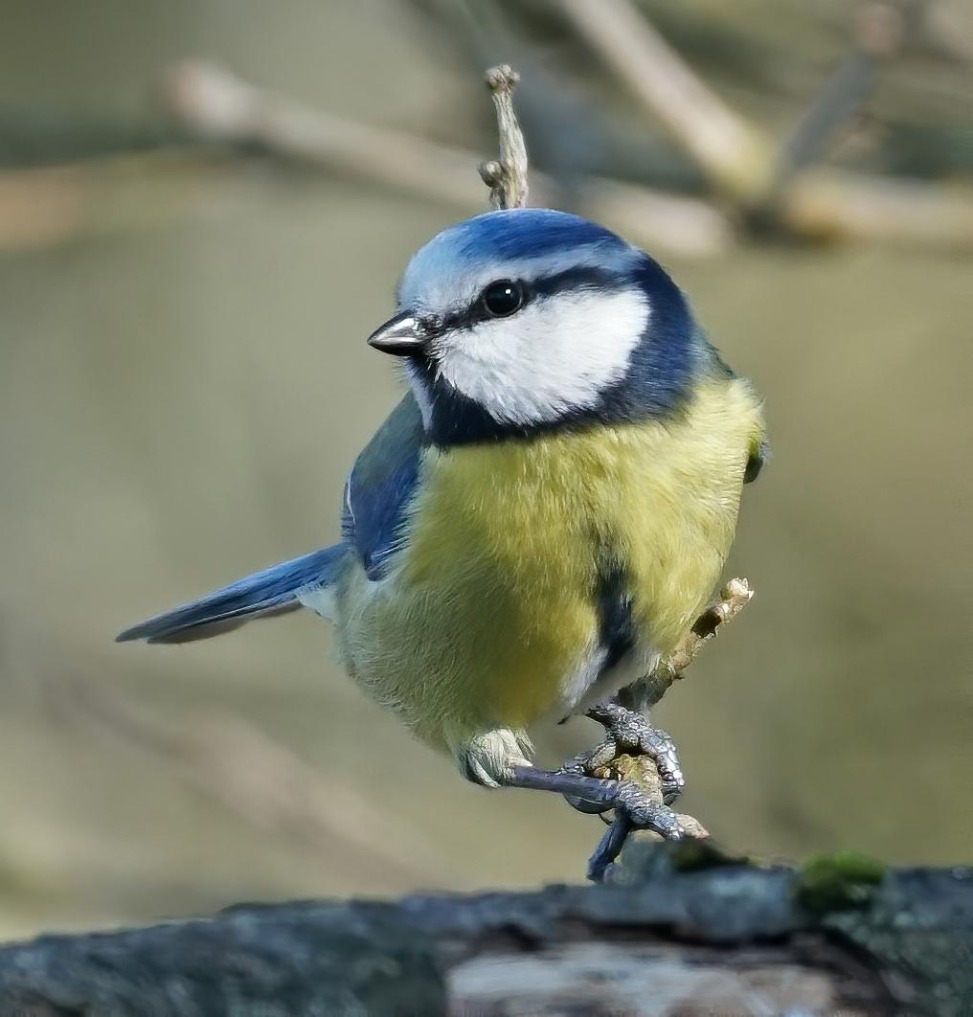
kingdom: Animalia
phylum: Chordata
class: Aves
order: Passeriformes
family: Paridae
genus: Cyanistes
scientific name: Cyanistes caeruleus
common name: Blåmejse
